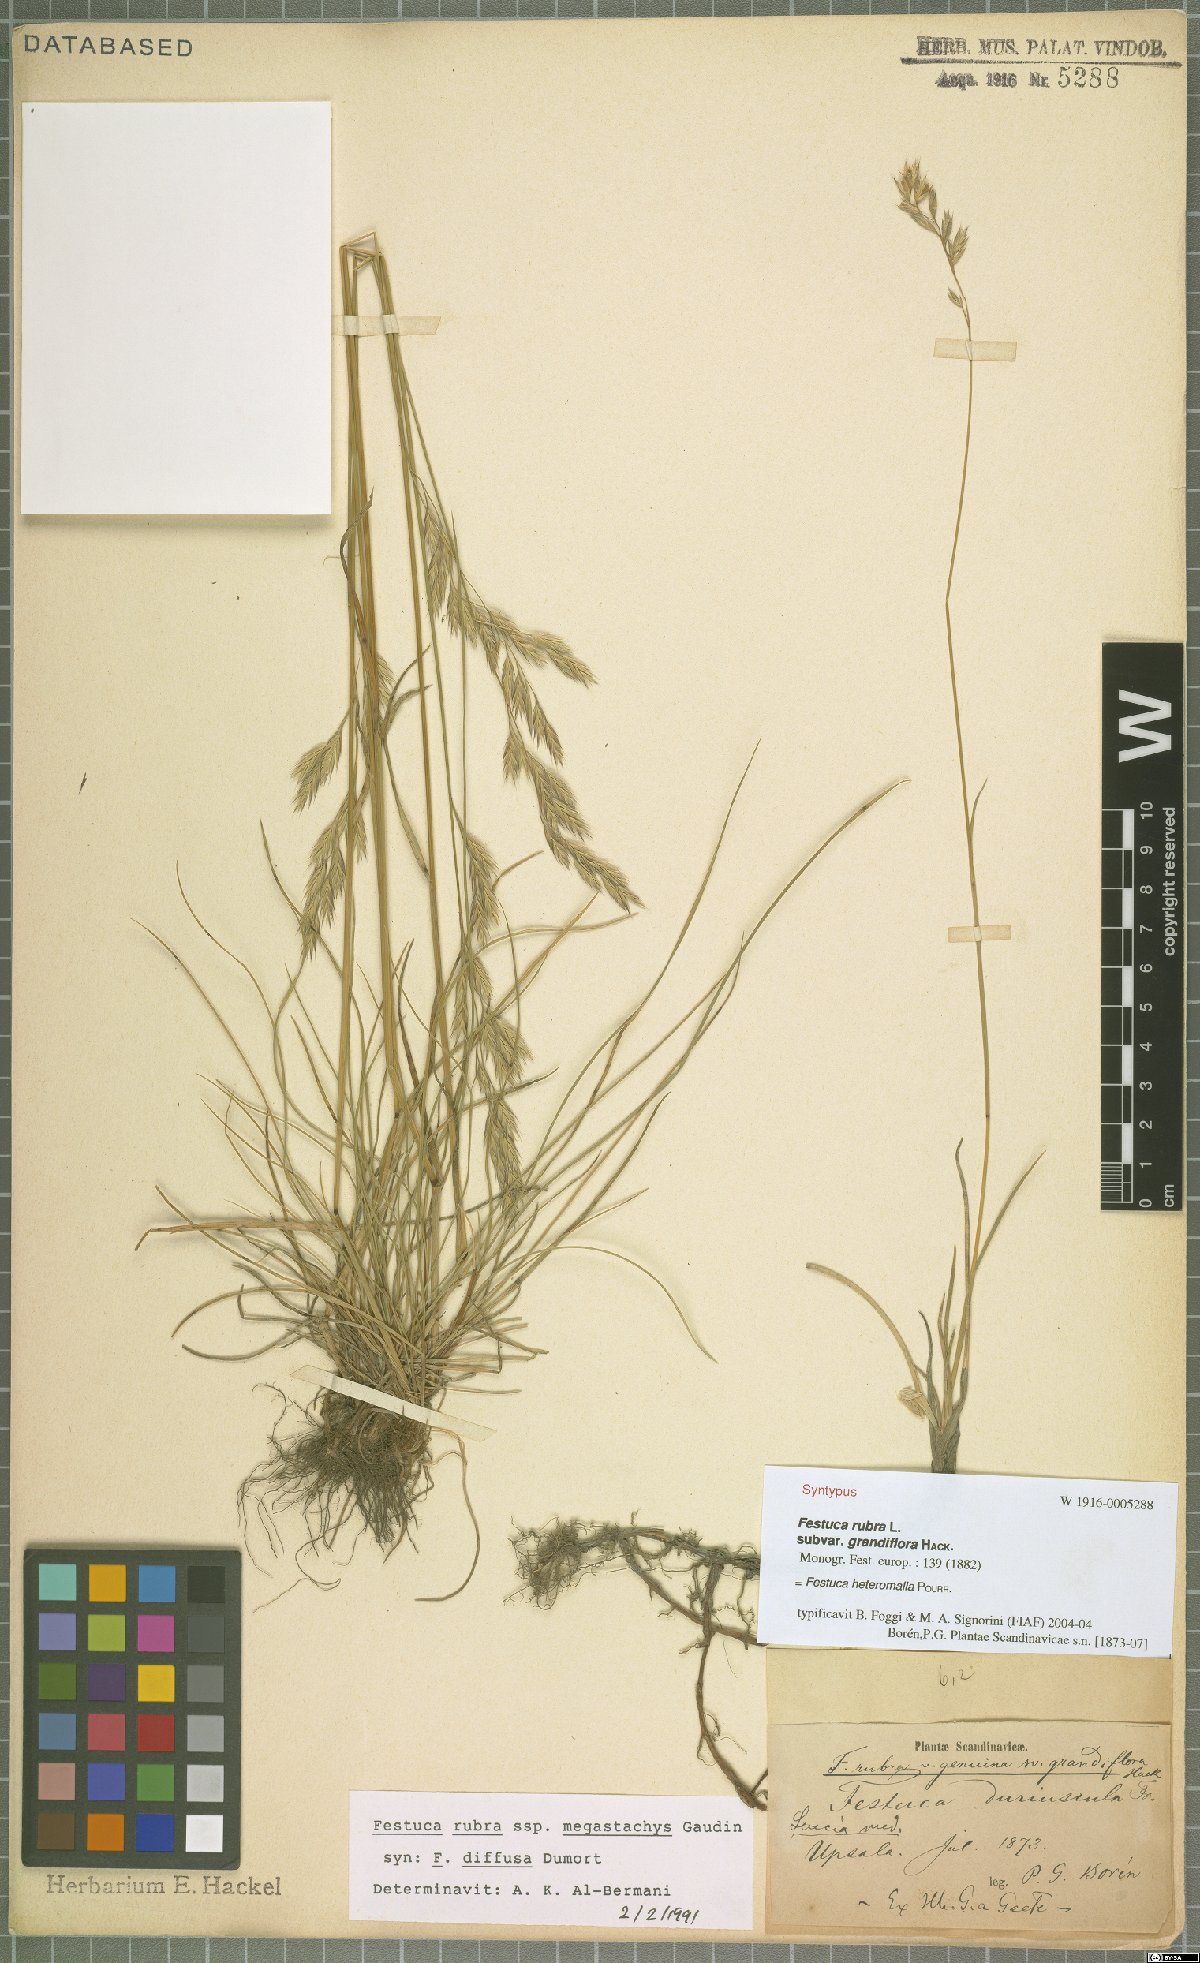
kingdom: Plantae
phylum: Tracheophyta
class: Liliopsida
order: Poales
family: Poaceae
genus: Festuca
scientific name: Festuca heteromalla
